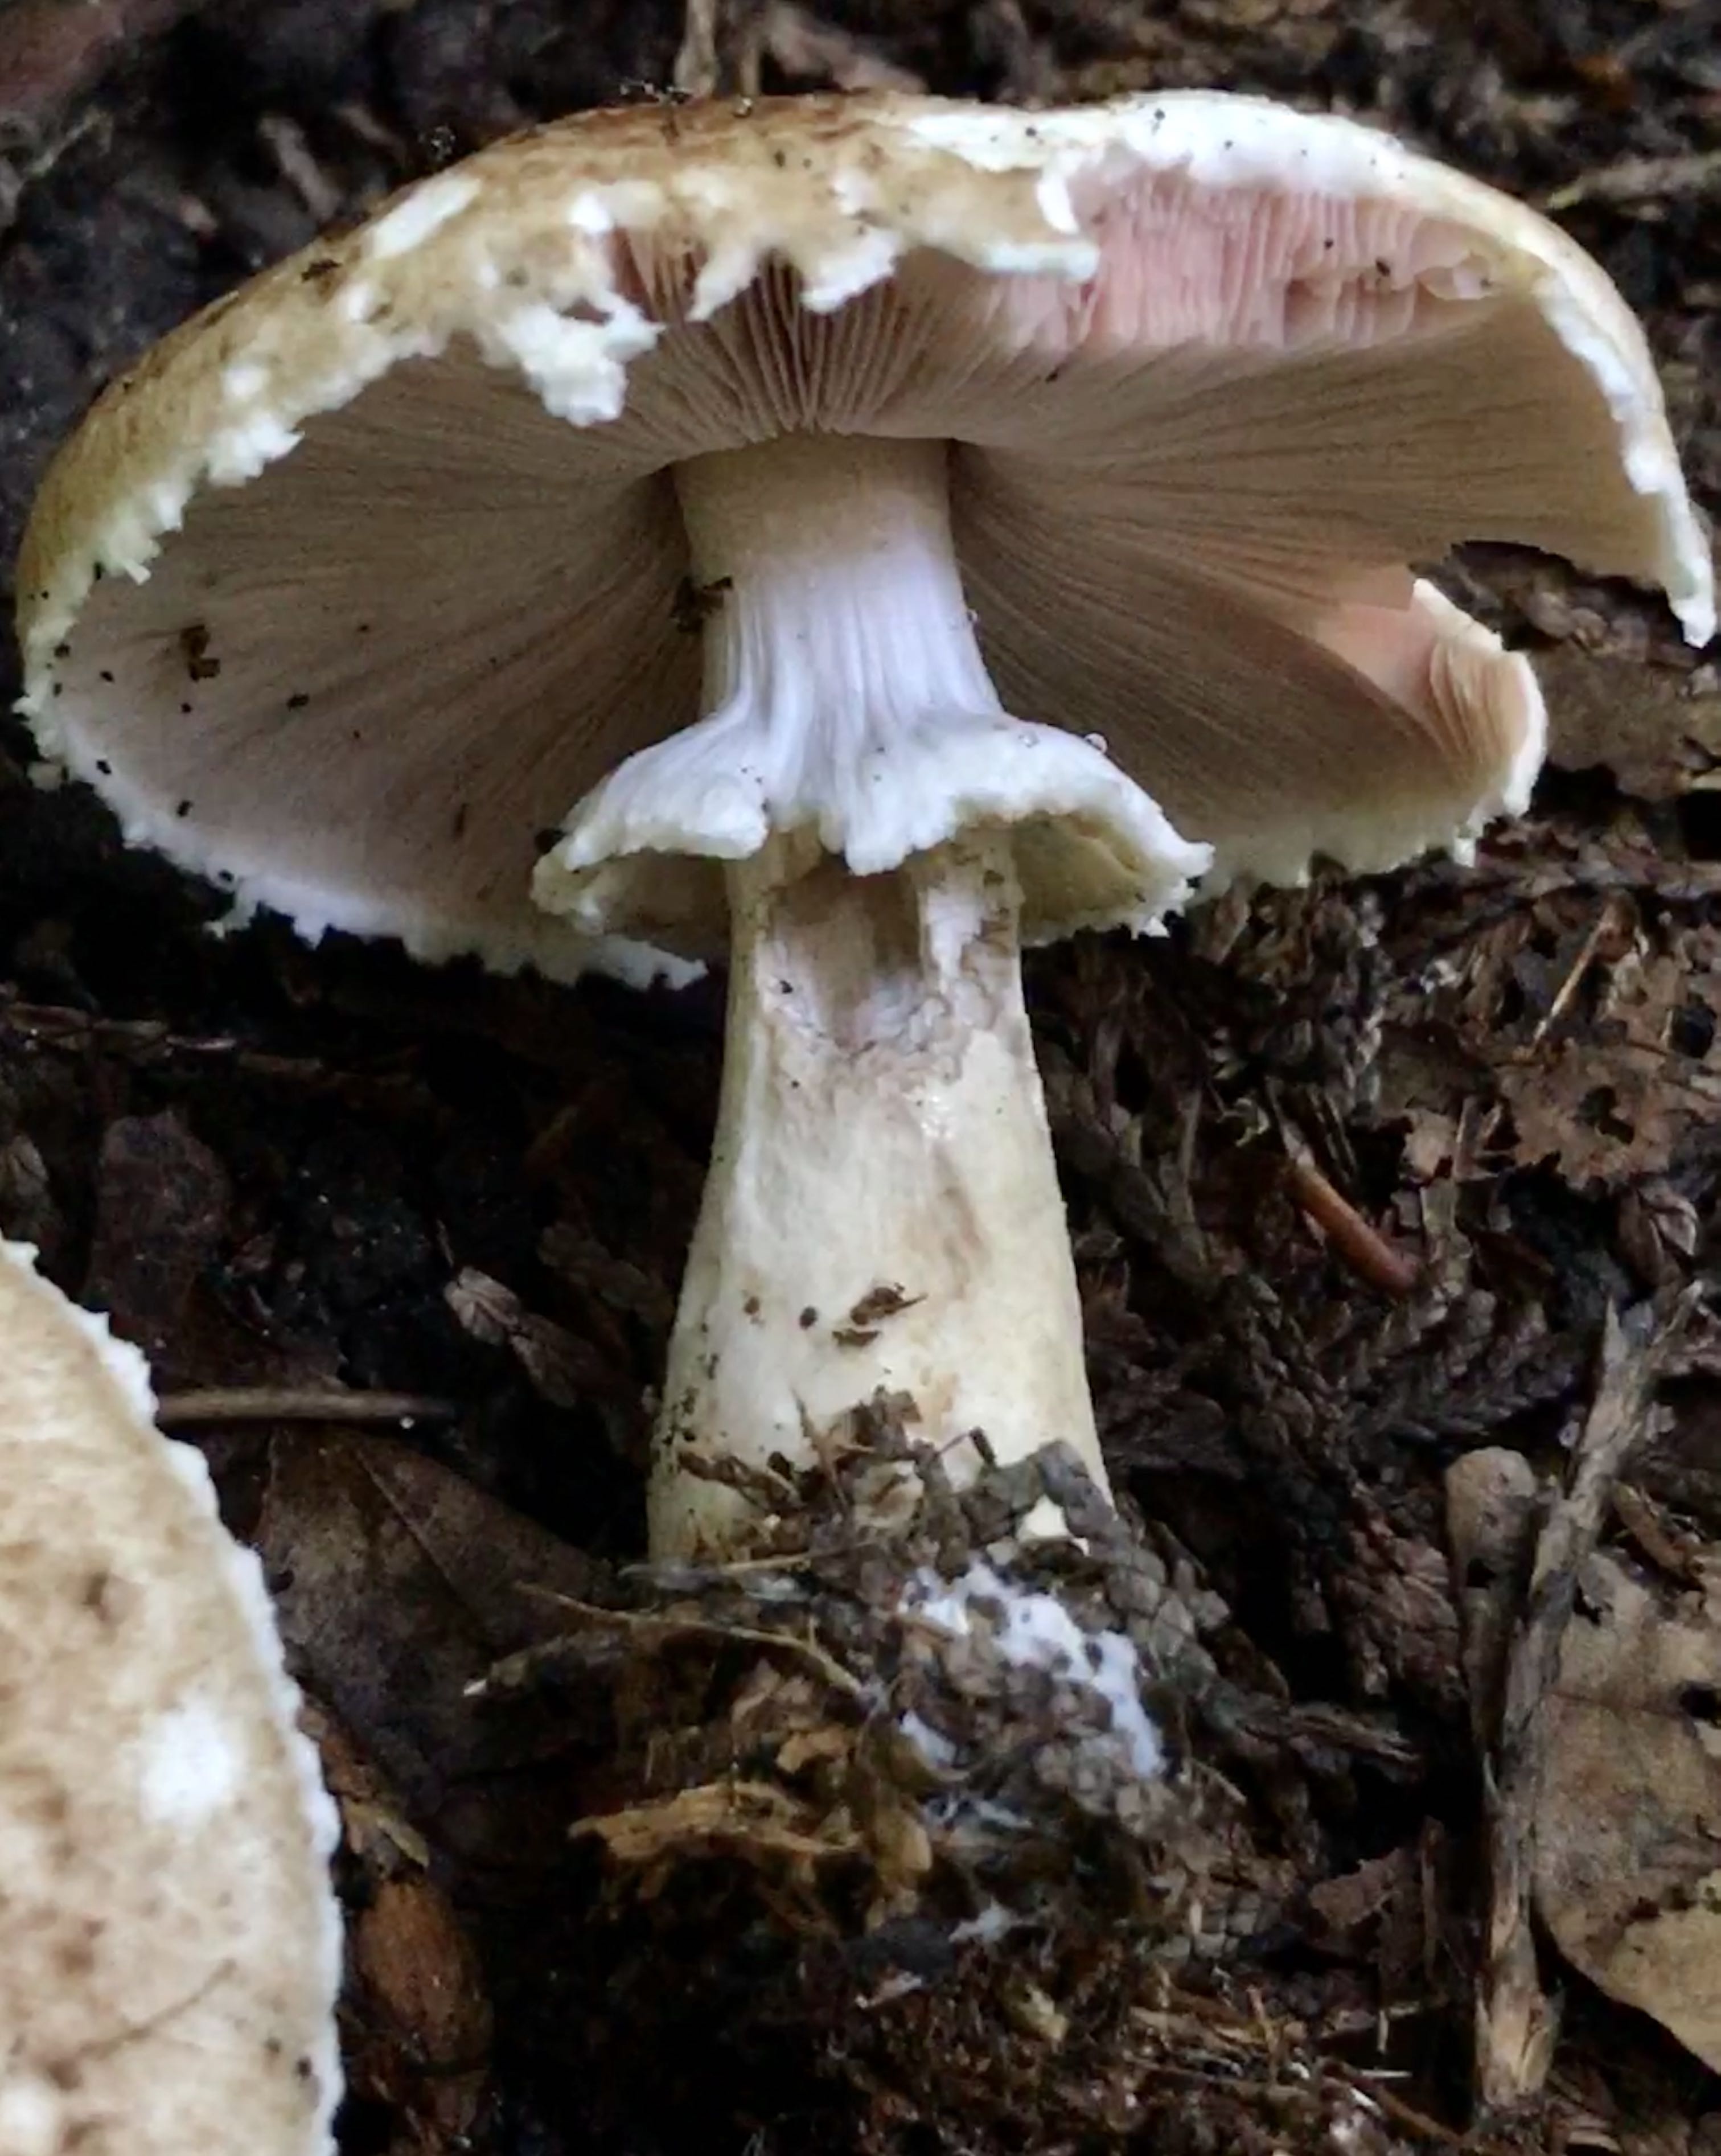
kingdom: Fungi
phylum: Basidiomycota
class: Agaricomycetes
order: Agaricales
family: Agaricaceae
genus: Agaricus
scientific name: Agaricus impudicus
